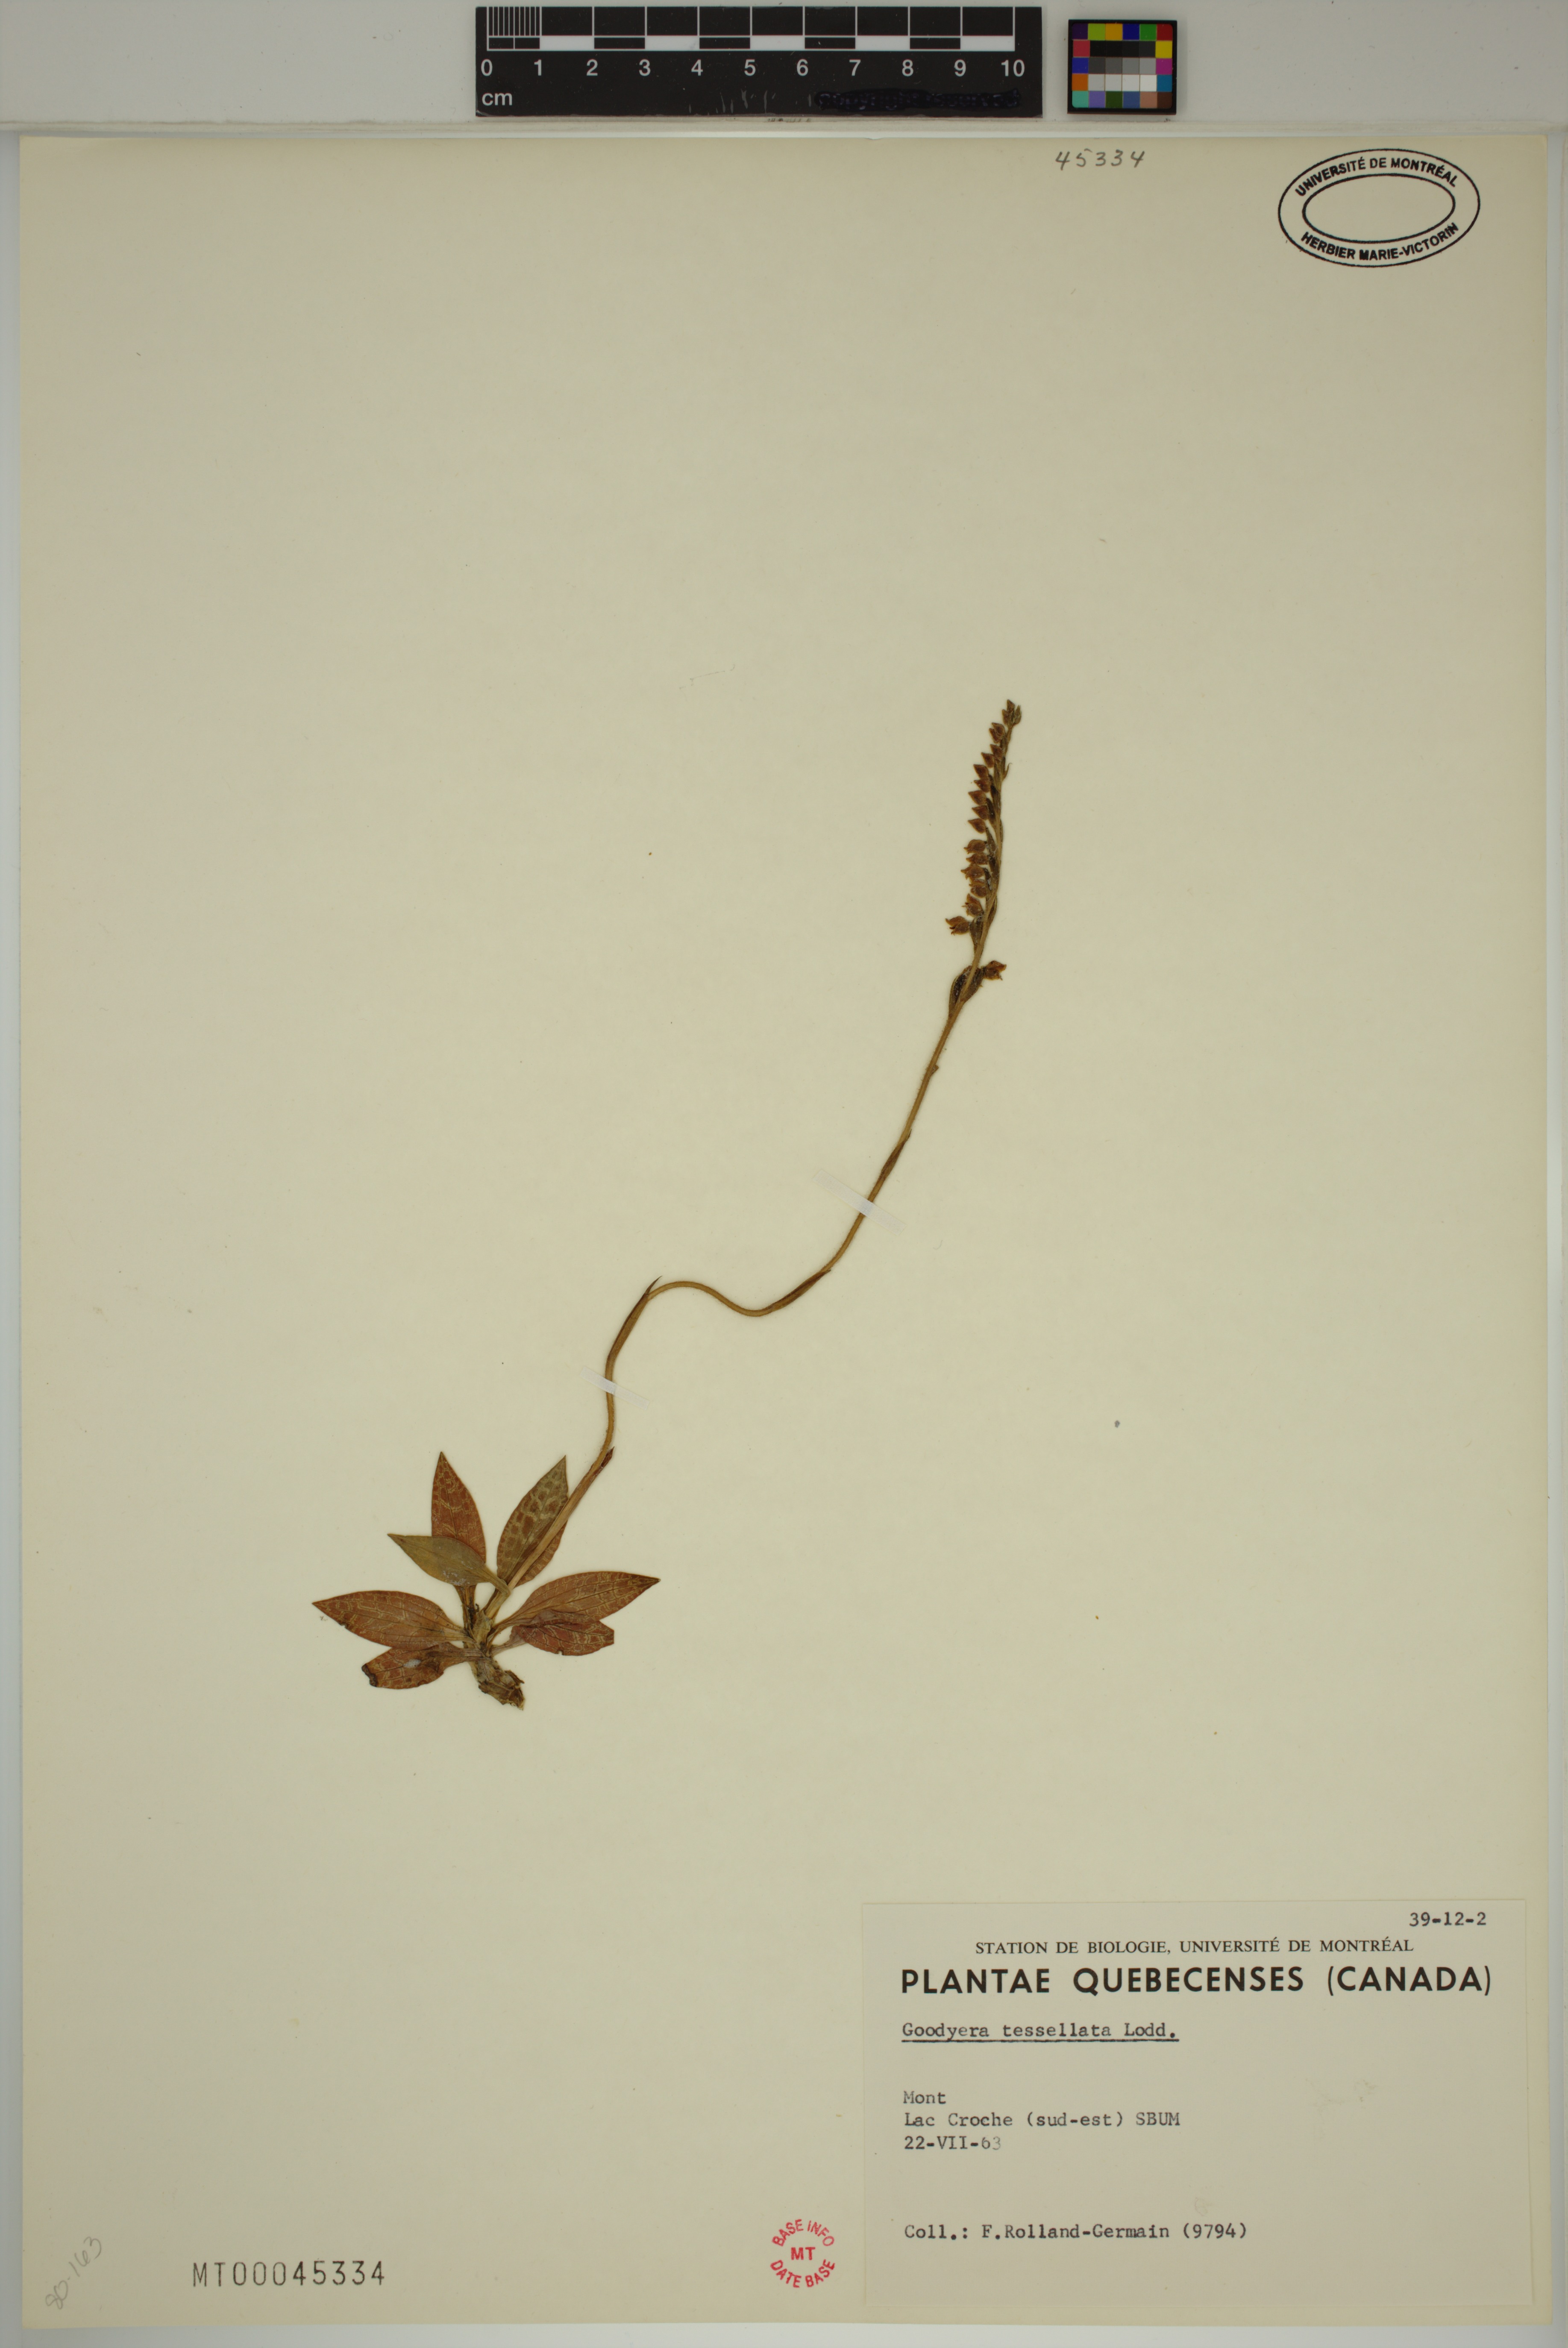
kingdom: Plantae
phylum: Tracheophyta
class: Liliopsida
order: Asparagales
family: Orchidaceae
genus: Goodyera
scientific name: Goodyera tesselata
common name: Checkered rattlesnake-plantain
